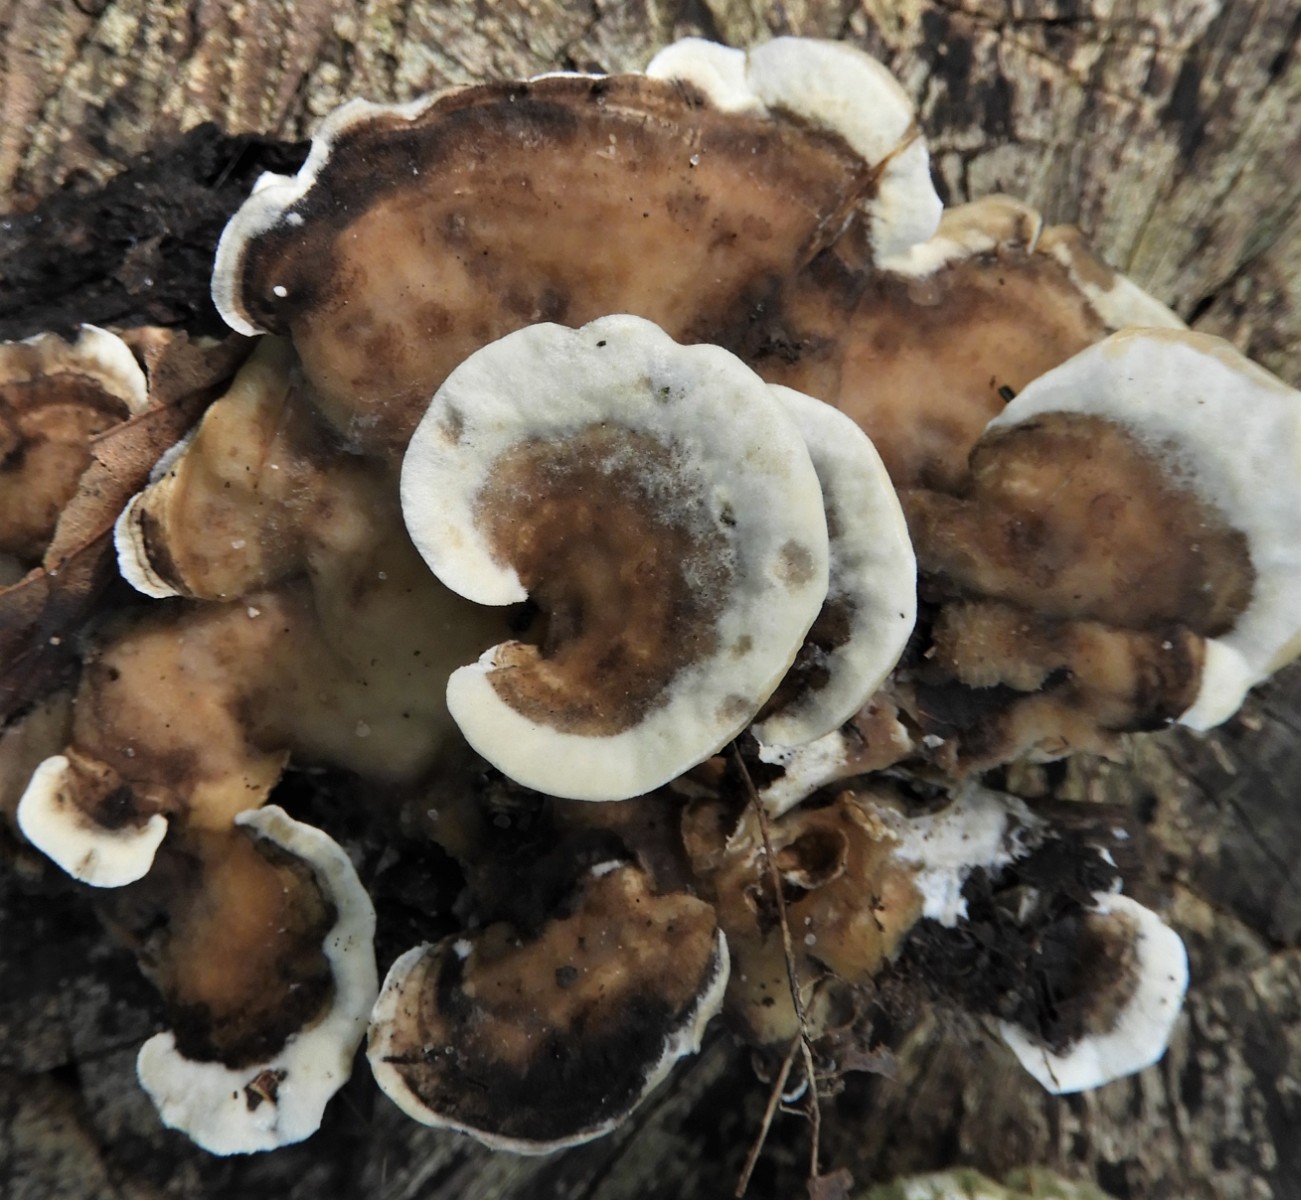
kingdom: Fungi
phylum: Basidiomycota
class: Agaricomycetes
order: Polyporales
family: Phanerochaetaceae
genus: Bjerkandera
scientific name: Bjerkandera adusta
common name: sveden sodporesvamp
